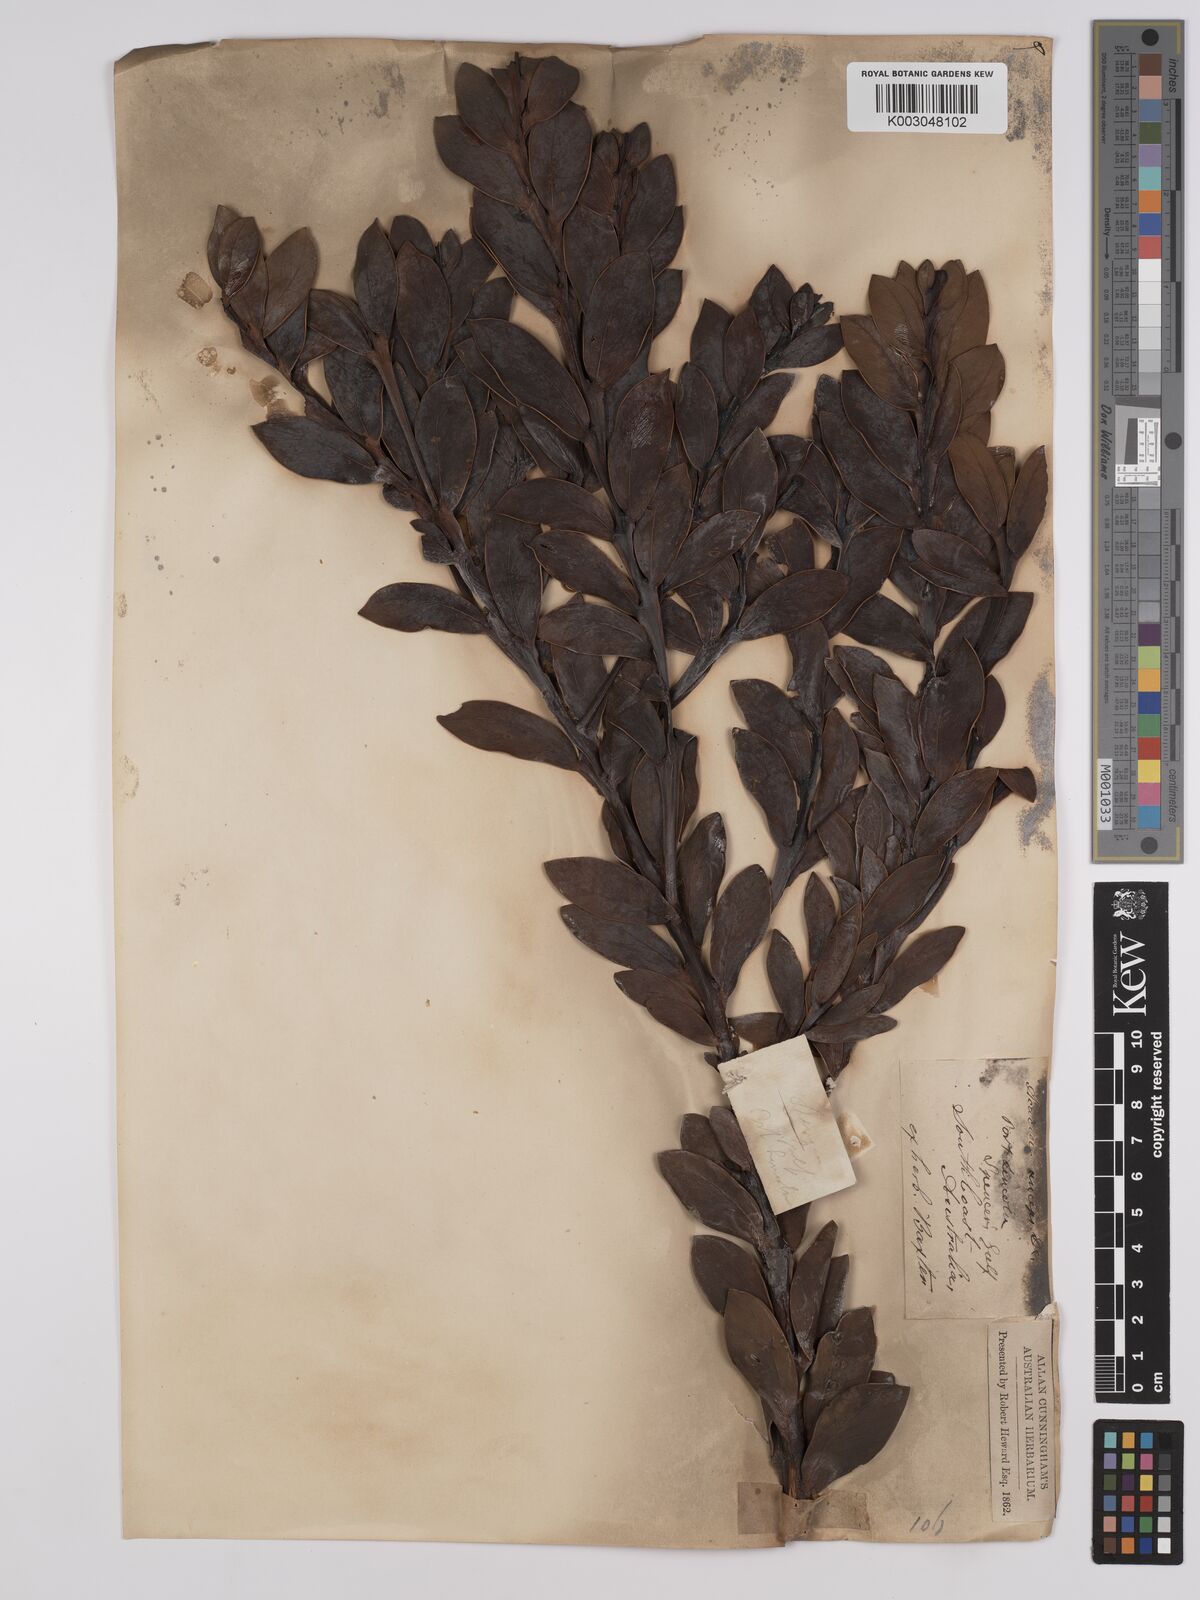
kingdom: Plantae
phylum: Tracheophyta
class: Magnoliopsida
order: Fabales
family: Fabaceae
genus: Acacia
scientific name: Acacia anceps
